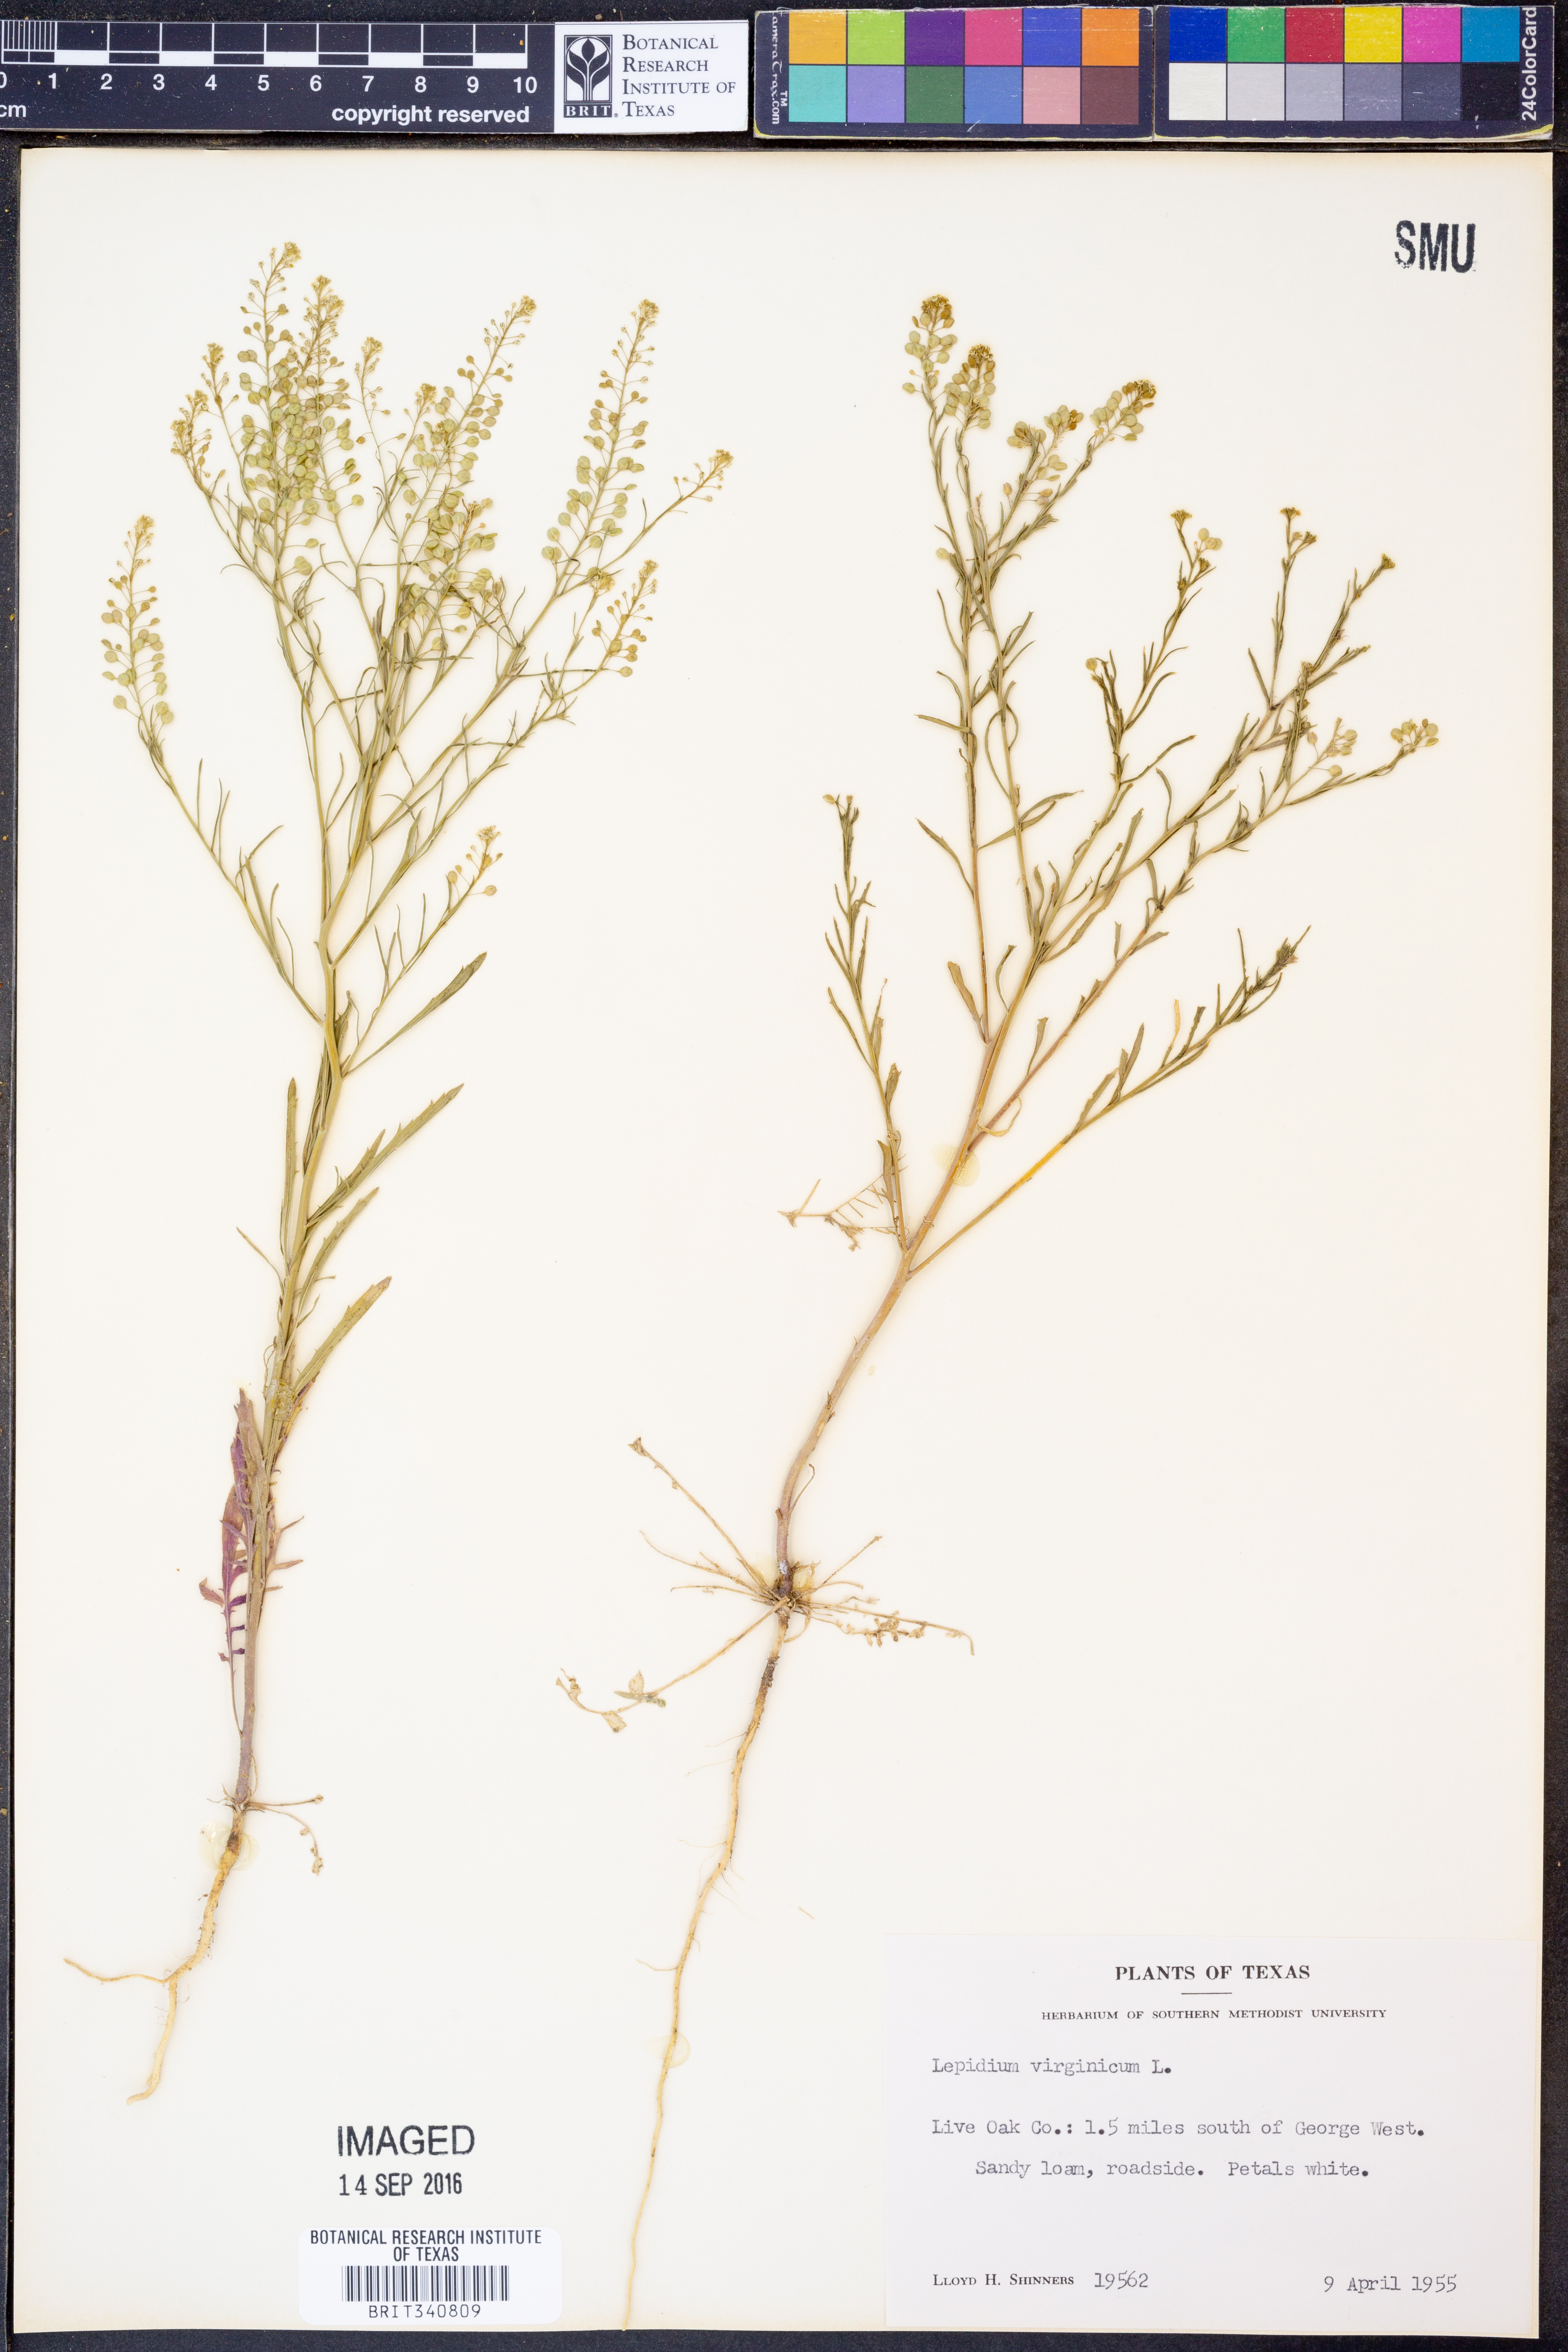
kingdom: Plantae
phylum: Tracheophyta
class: Magnoliopsida
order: Brassicales
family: Brassicaceae
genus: Lepidium
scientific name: Lepidium virginicum
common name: Least pepperwort
